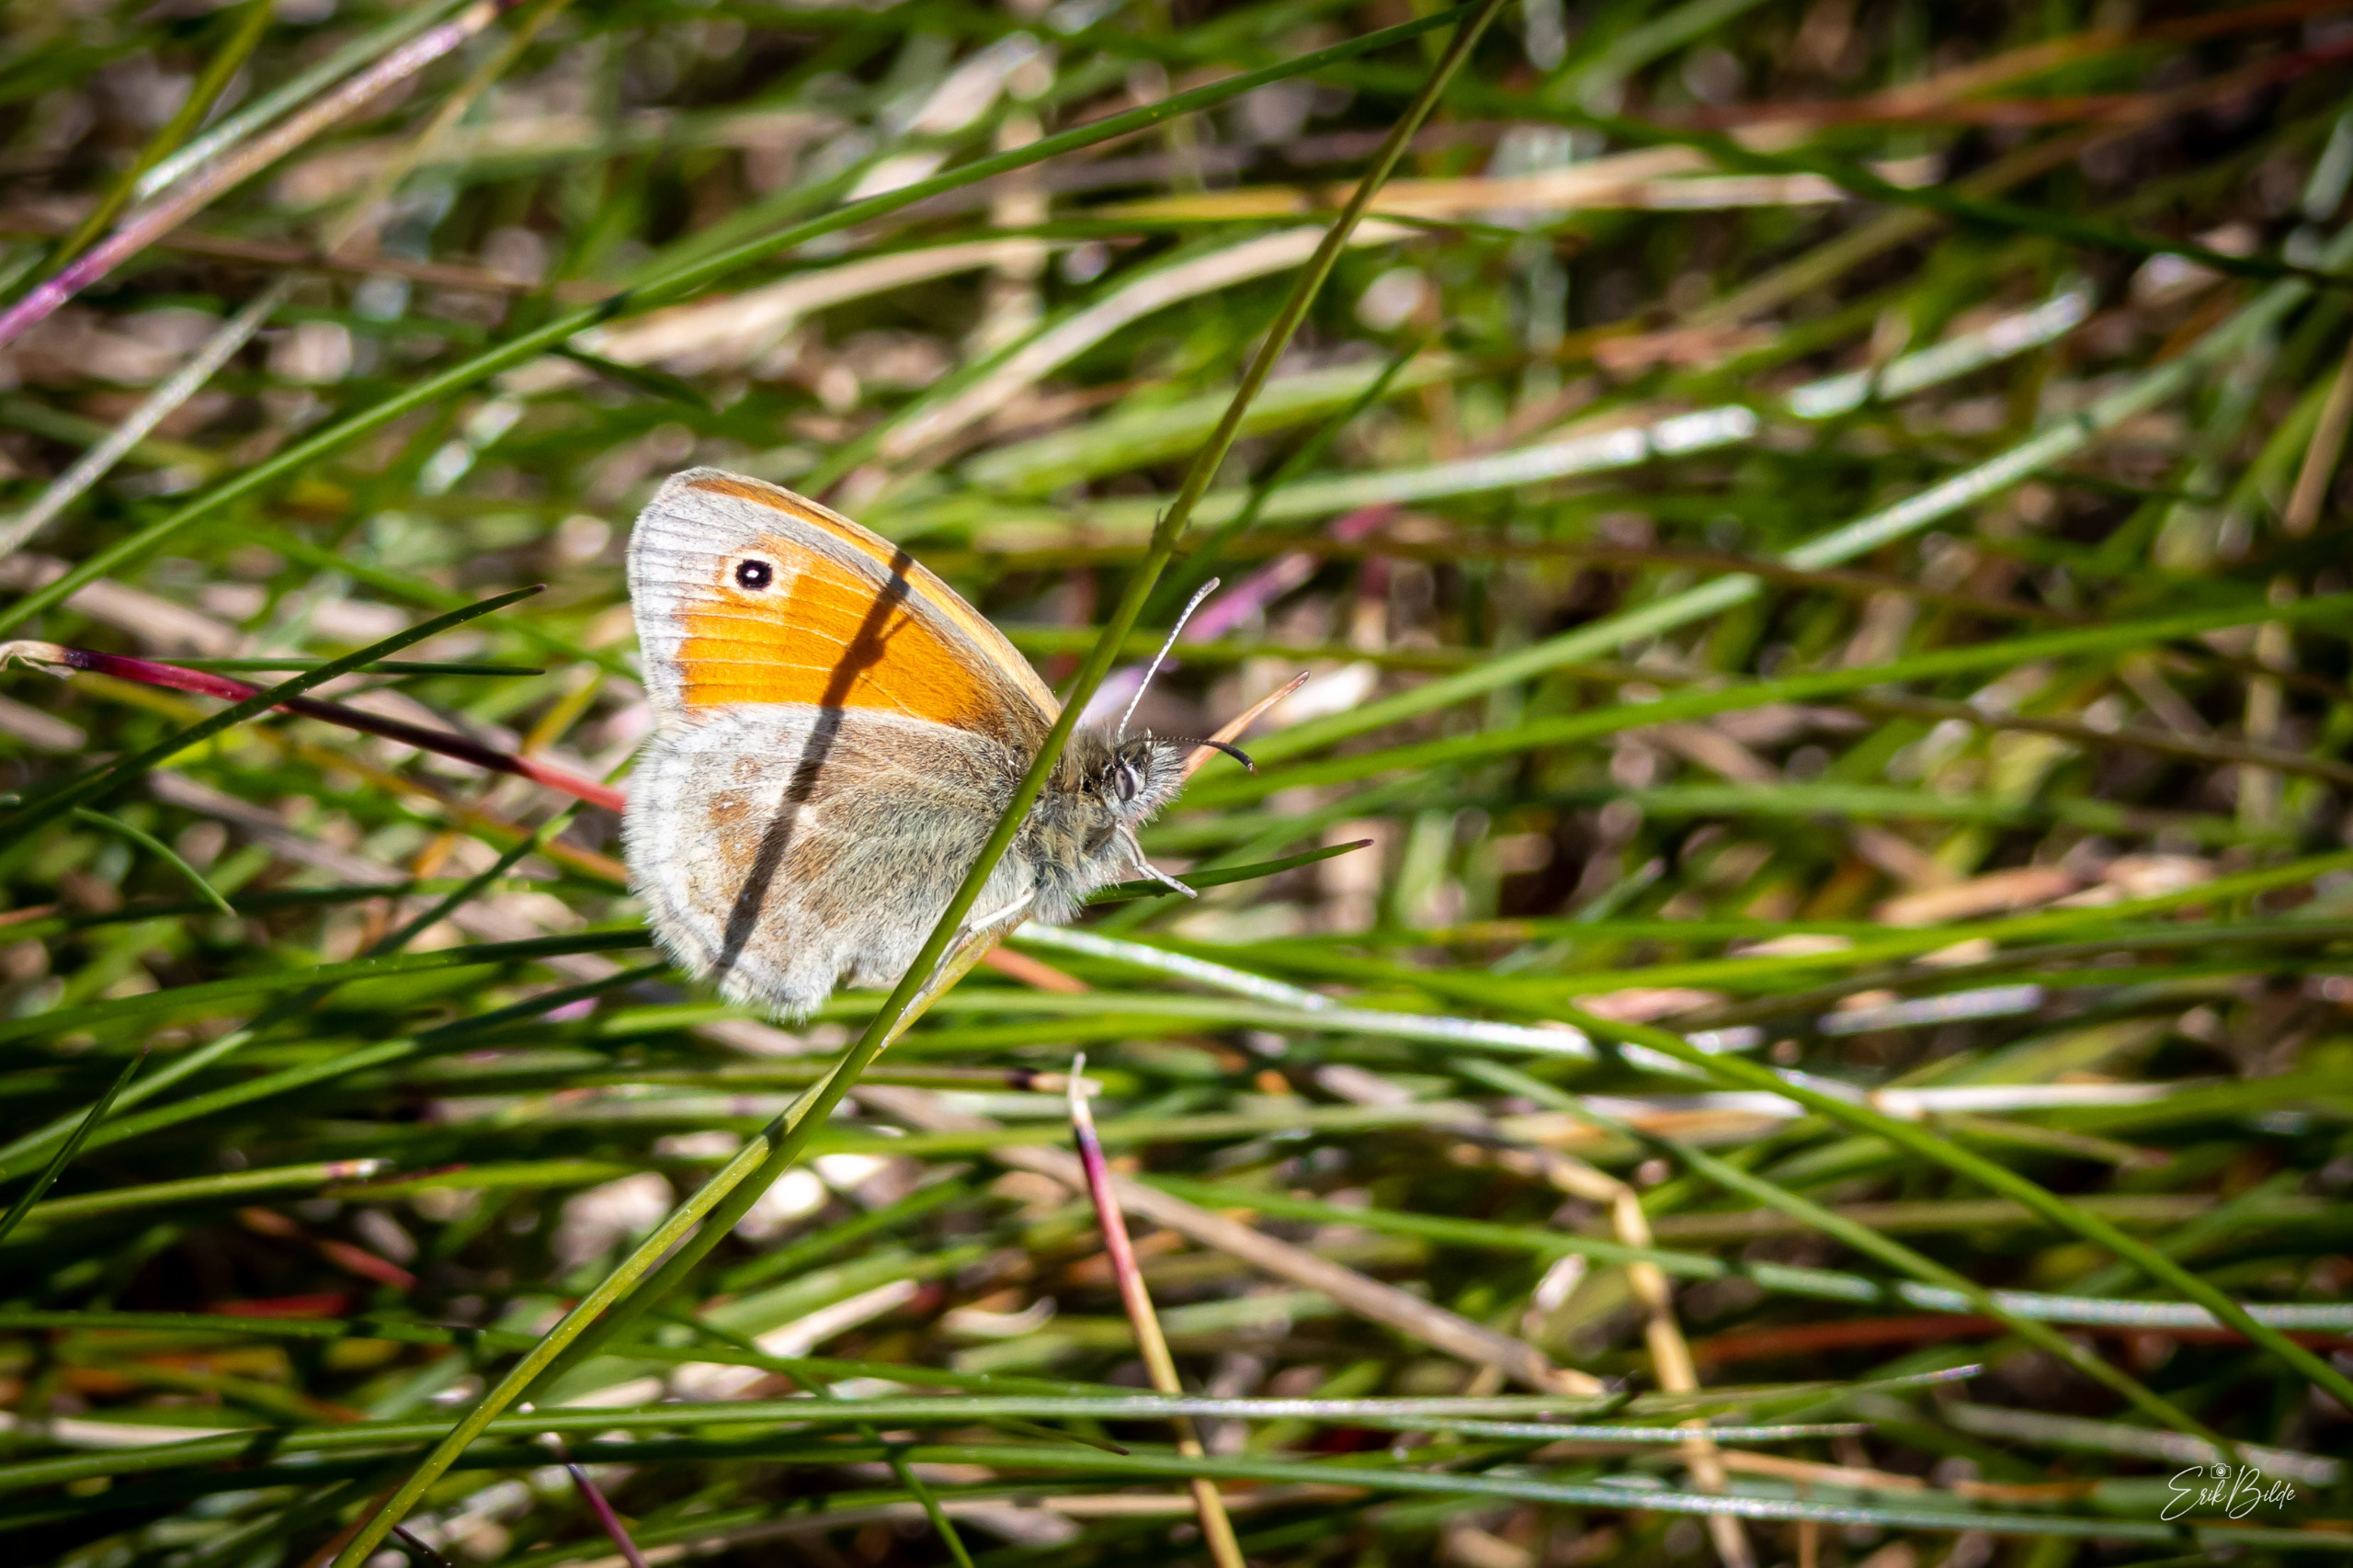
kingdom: Animalia
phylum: Arthropoda
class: Insecta
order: Lepidoptera
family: Nymphalidae
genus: Coenonympha
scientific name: Coenonympha pamphilus
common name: Okkergul randøje
